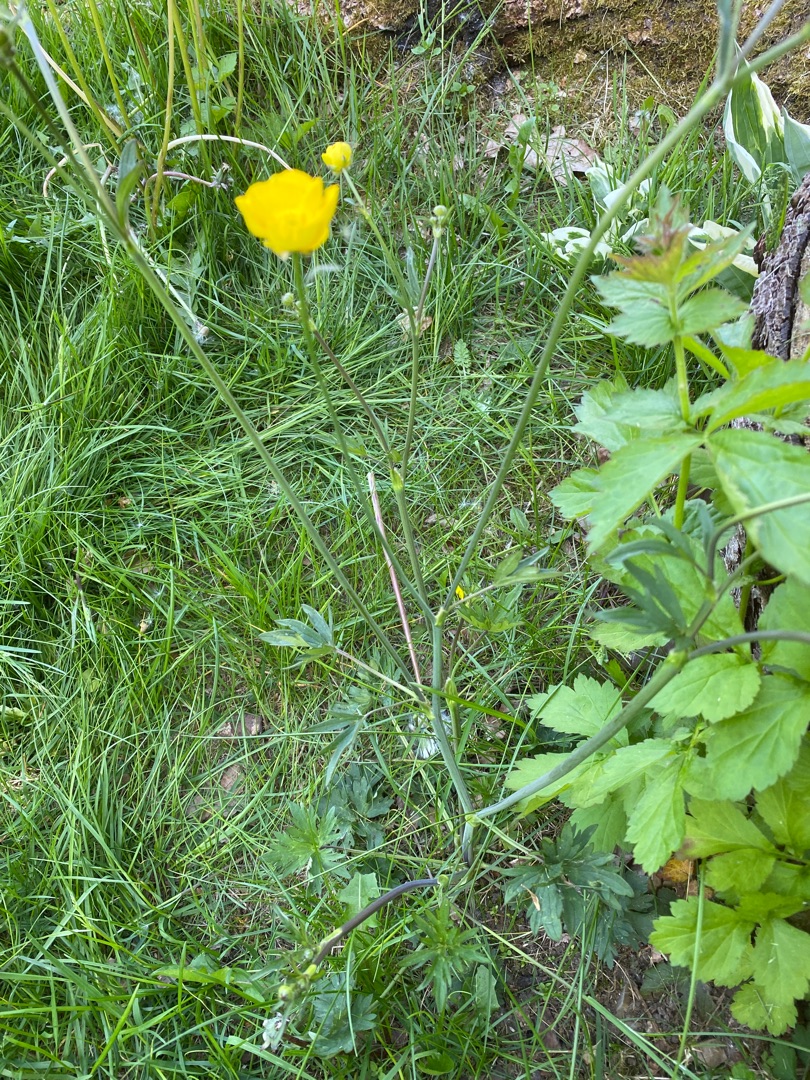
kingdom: Plantae
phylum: Tracheophyta
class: Magnoliopsida
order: Ranunculales
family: Ranunculaceae
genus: Ranunculus
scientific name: Ranunculus acris
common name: Bidende ranunkel
